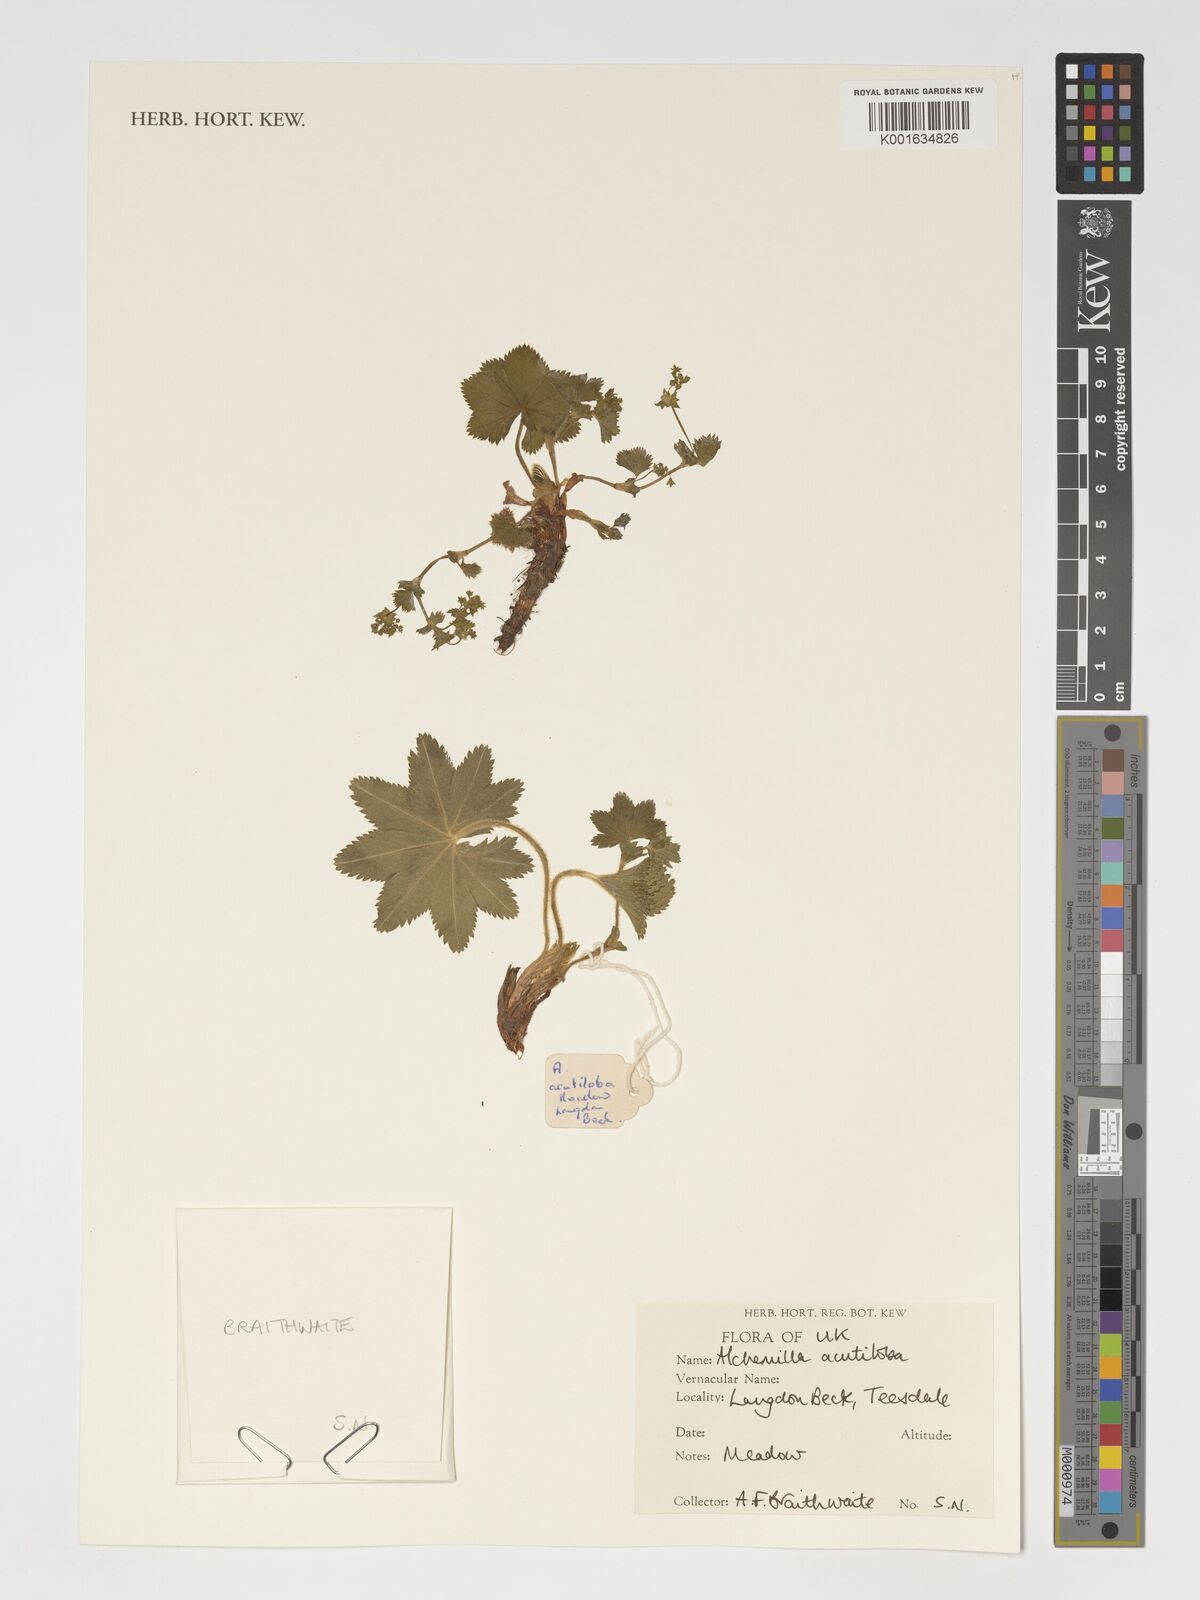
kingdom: Plantae
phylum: Tracheophyta
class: Magnoliopsida
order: Rosales
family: Rosaceae
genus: Alchemilla
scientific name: Alchemilla mollis
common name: Lady's-mantle
